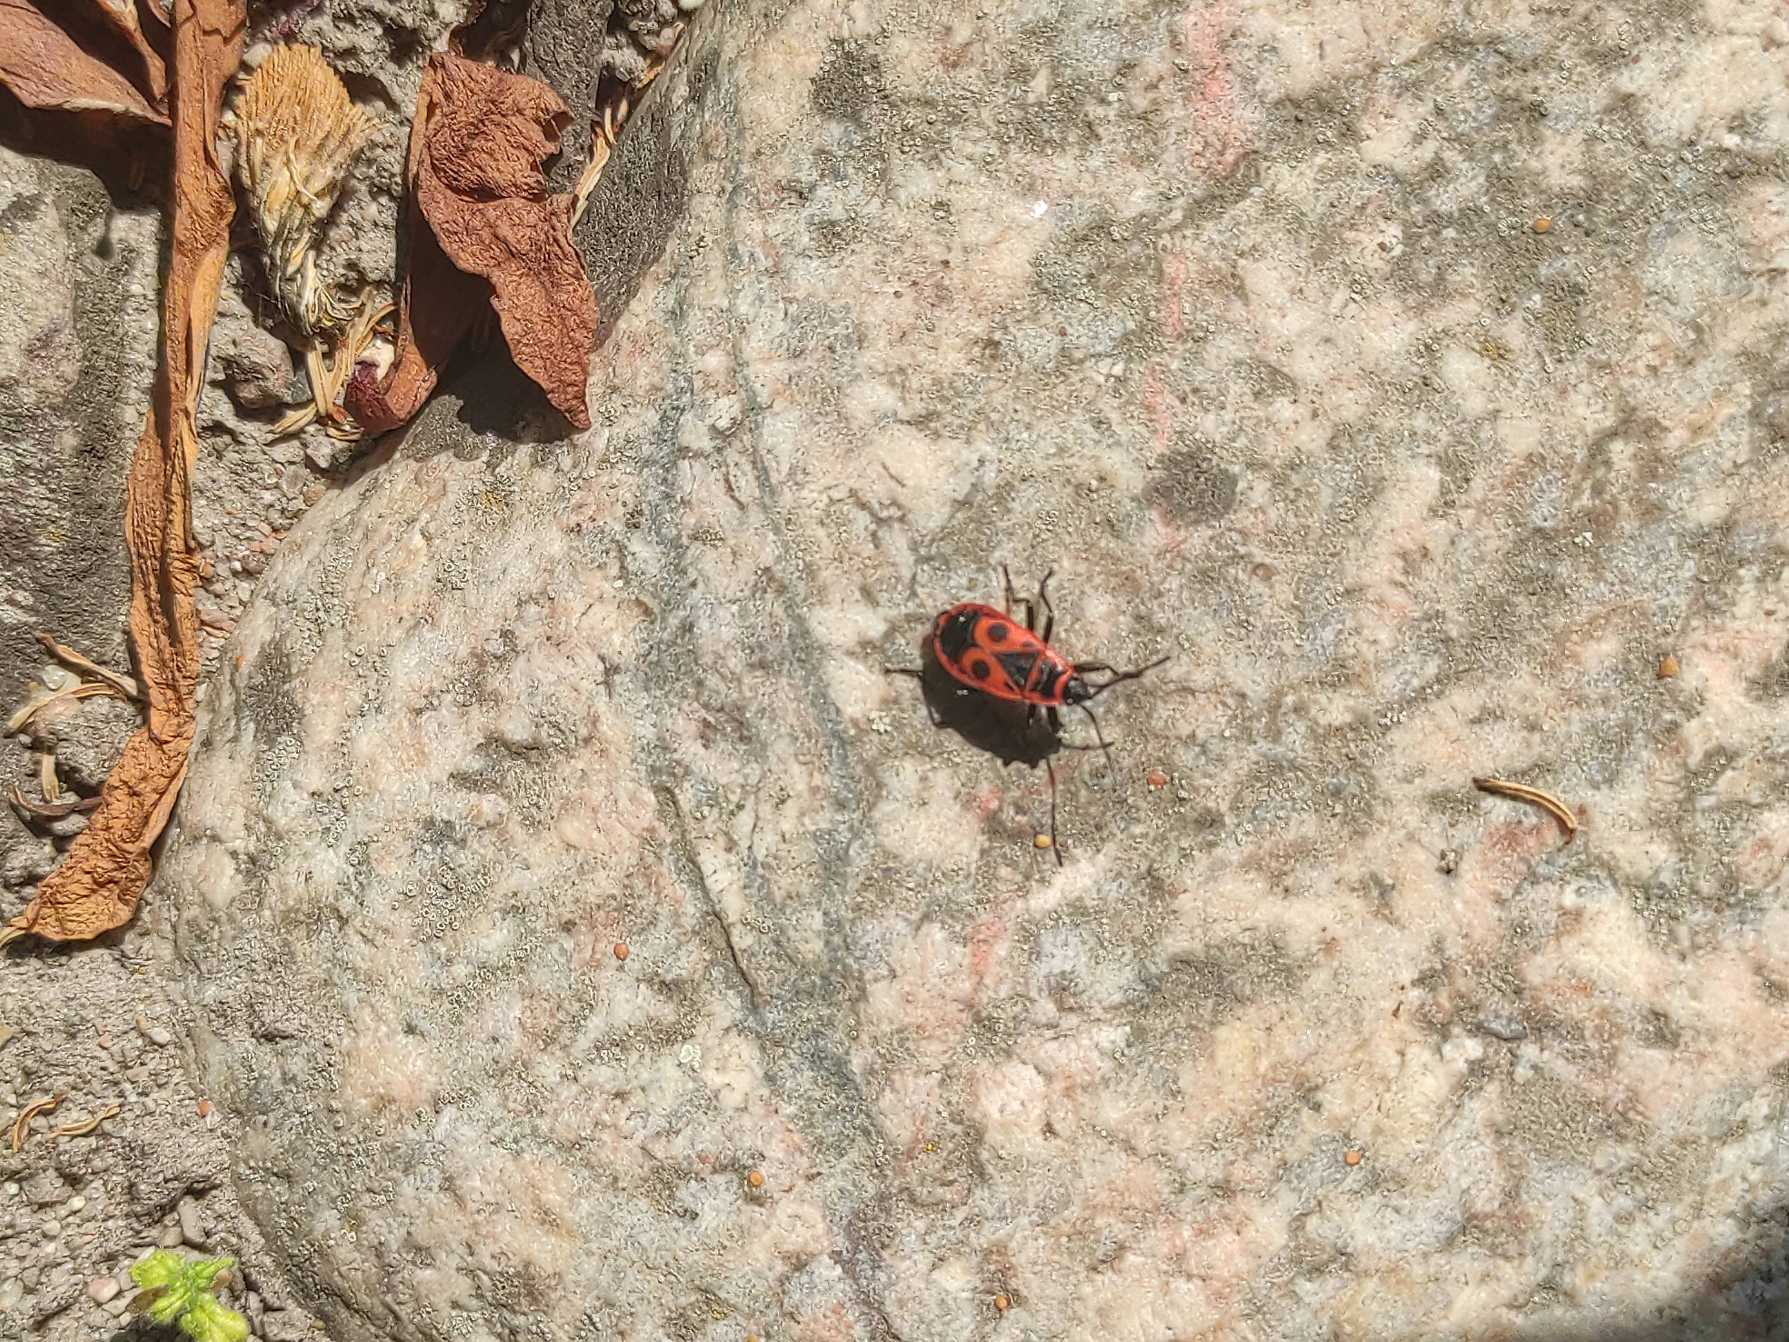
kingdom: Animalia
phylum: Arthropoda
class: Insecta
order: Hemiptera
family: Pyrrhocoridae
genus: Pyrrhocoris
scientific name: Pyrrhocoris apterus
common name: Ildtæge
